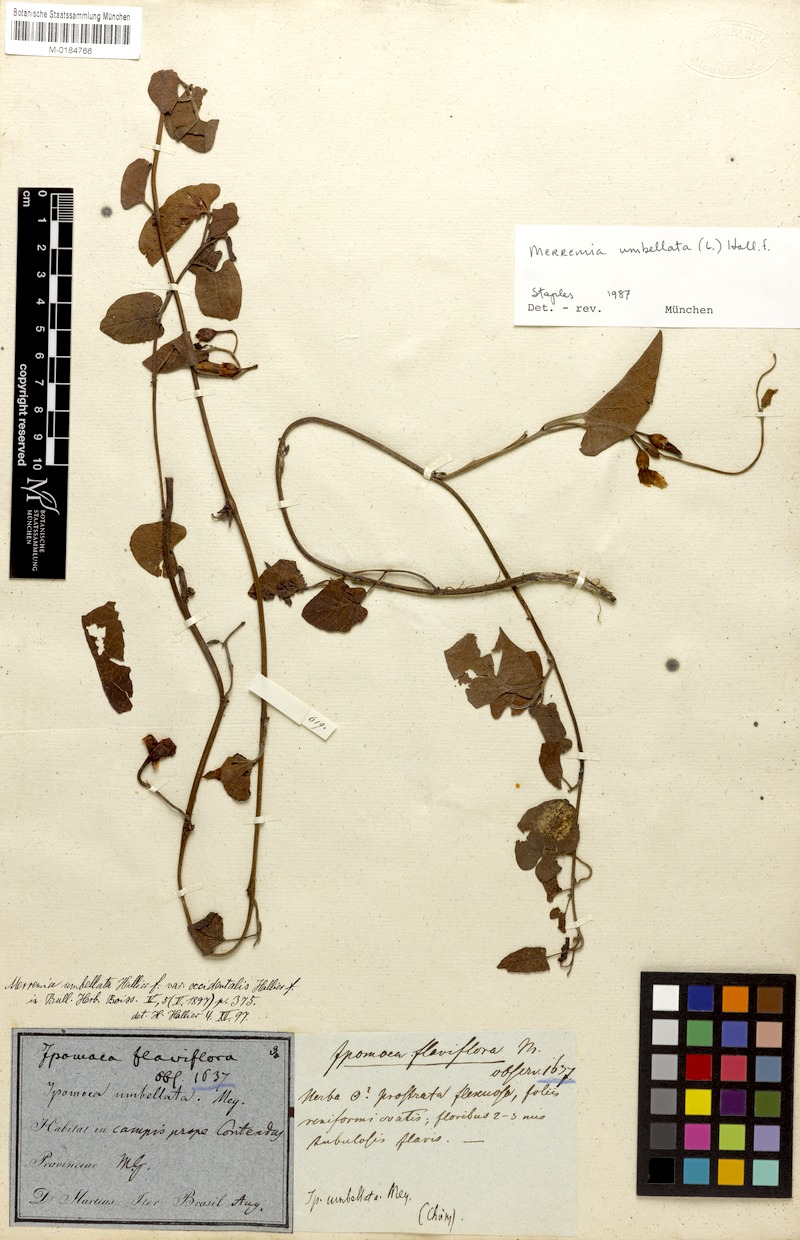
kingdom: Plantae
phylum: Tracheophyta
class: Magnoliopsida
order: Solanales
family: Convolvulaceae
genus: Camonea
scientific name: Camonea umbellata
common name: Hogvine
